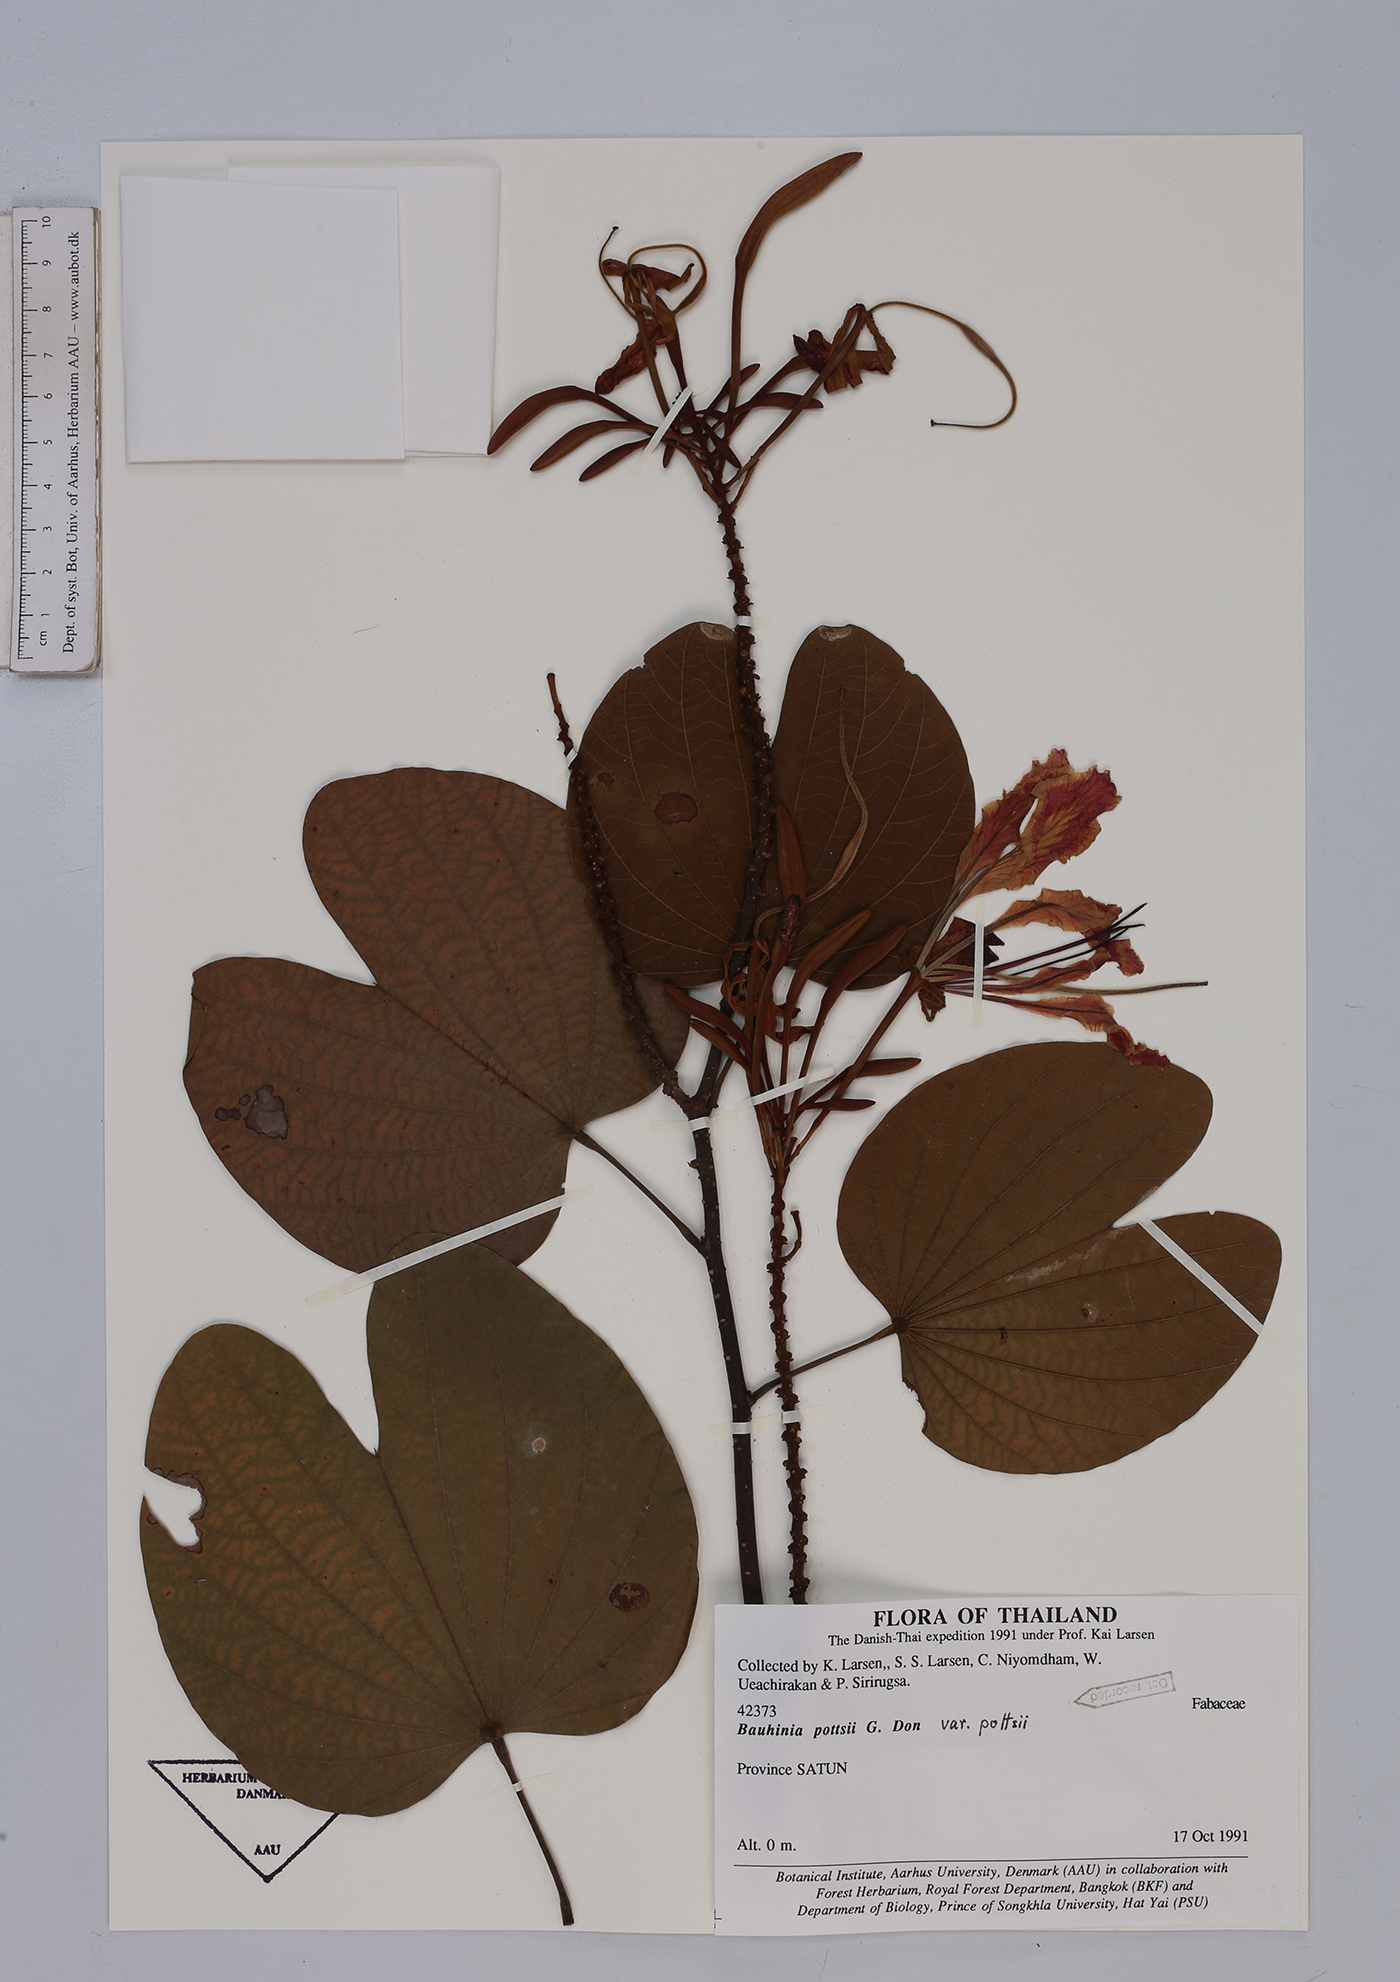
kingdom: Plantae
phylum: Tracheophyta
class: Magnoliopsida
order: Fabales
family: Fabaceae
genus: Bauhinia
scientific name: Bauhinia pottsii
